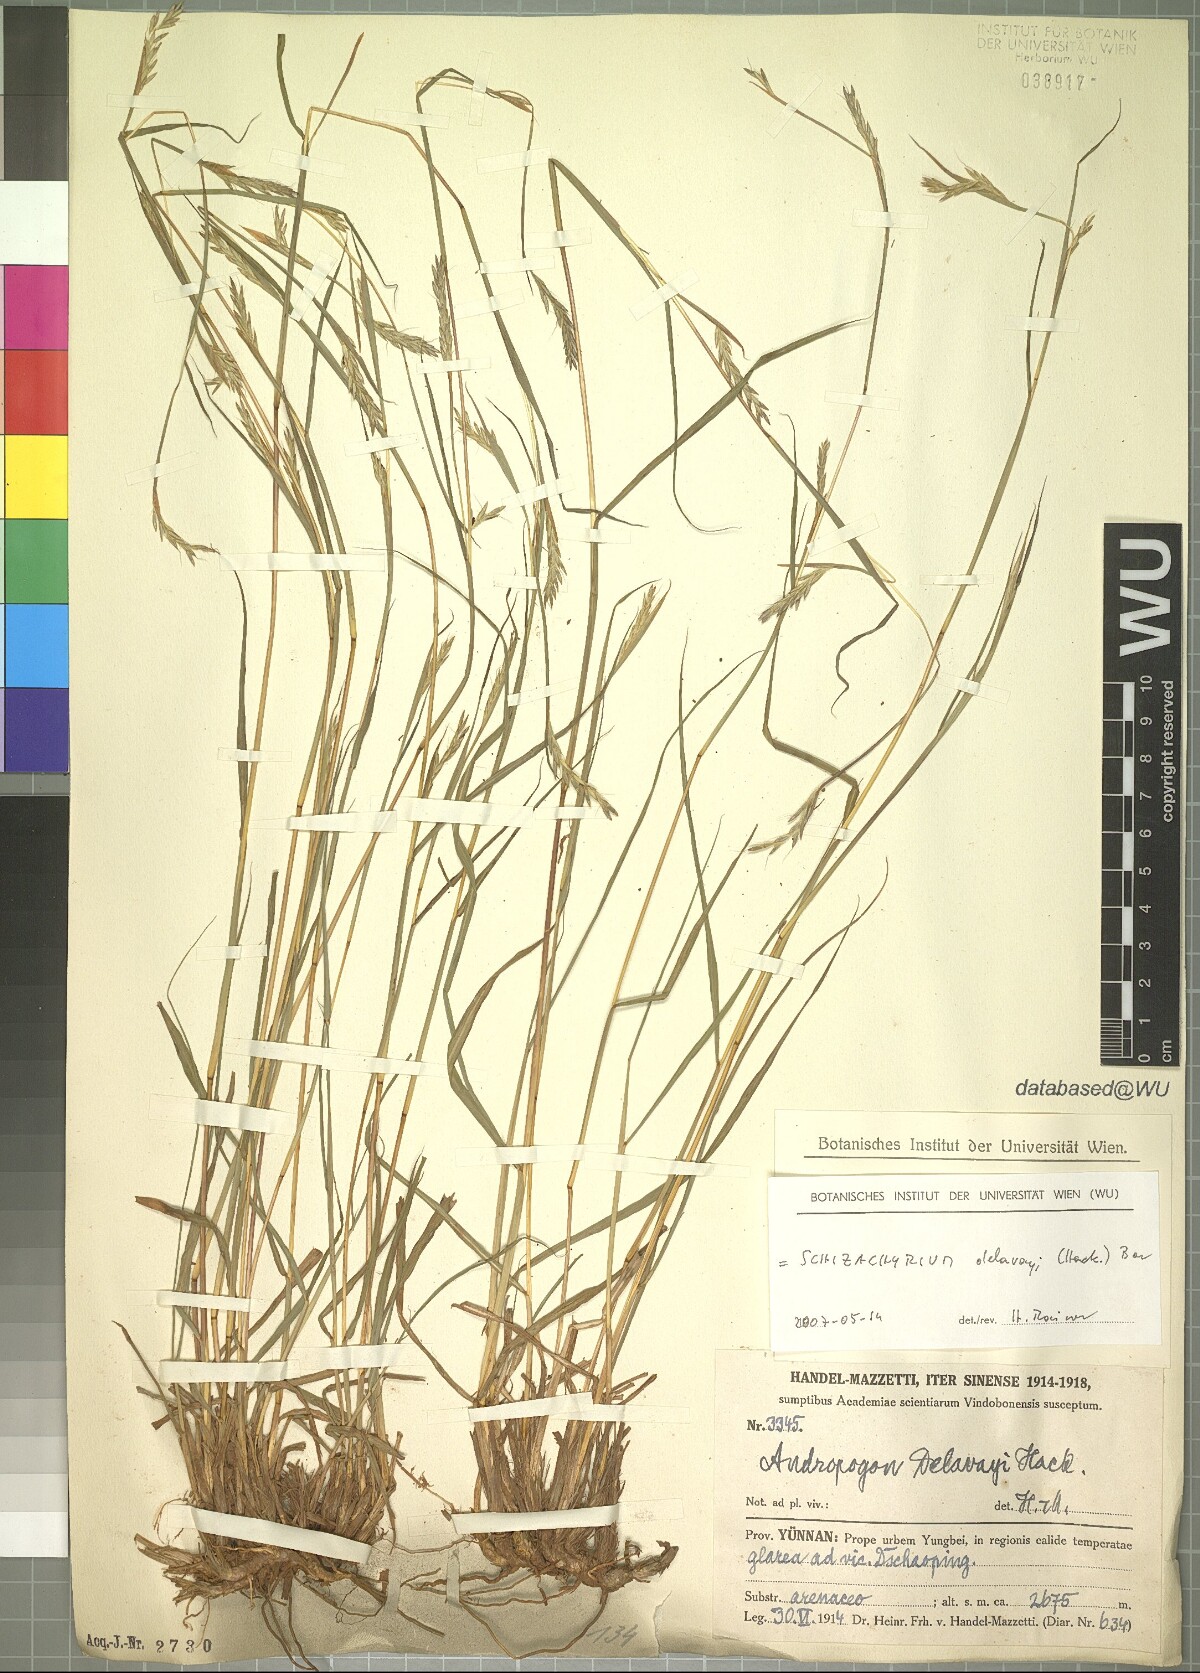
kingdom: Plantae
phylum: Tracheophyta
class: Liliopsida
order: Poales
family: Poaceae
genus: Schizachyrium
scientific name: Schizachyrium delavayi
